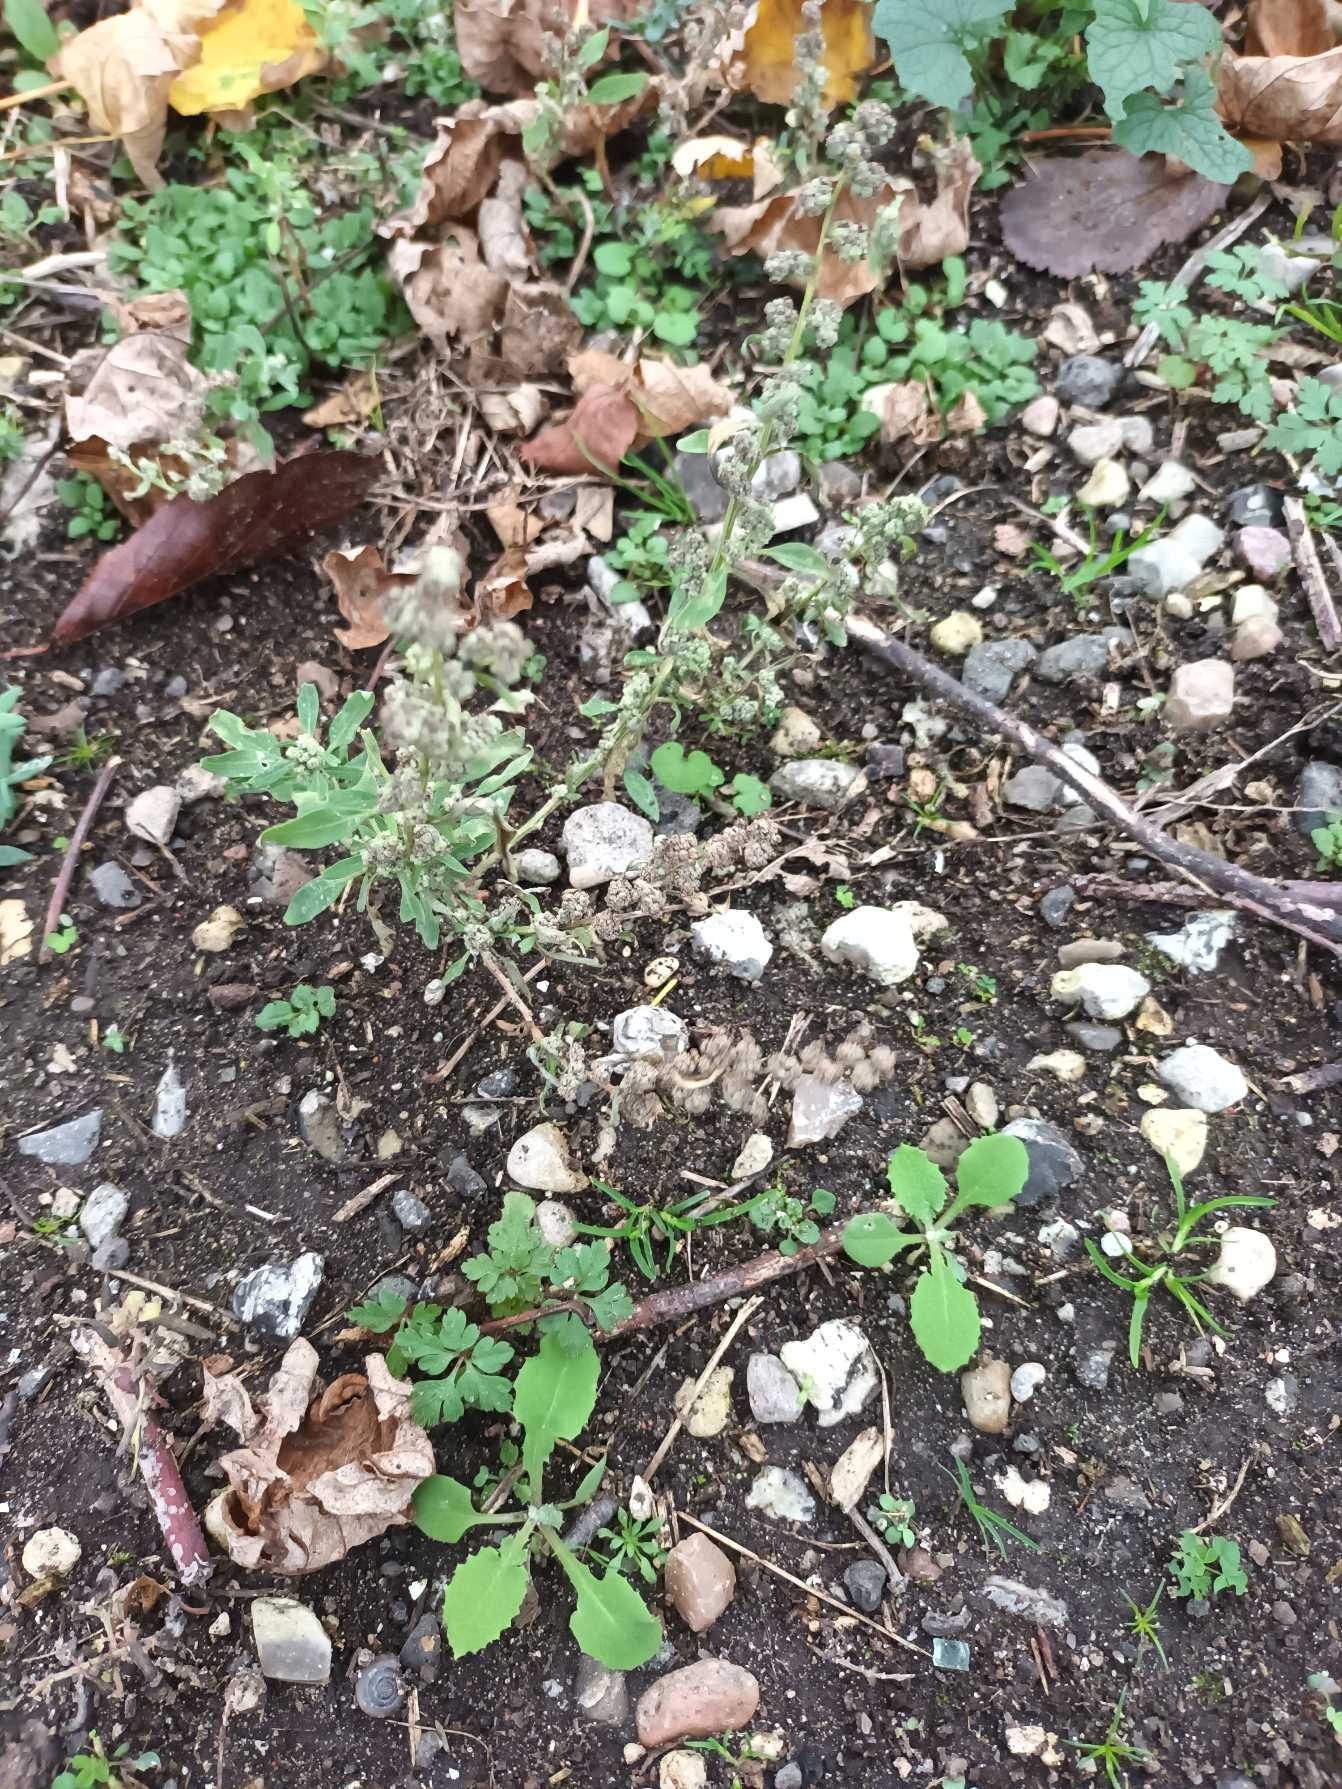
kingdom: Plantae
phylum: Tracheophyta
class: Magnoliopsida
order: Caryophyllales
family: Amaranthaceae
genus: Chenopodium
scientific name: Chenopodium album
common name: Hvidmelet gåsefod
